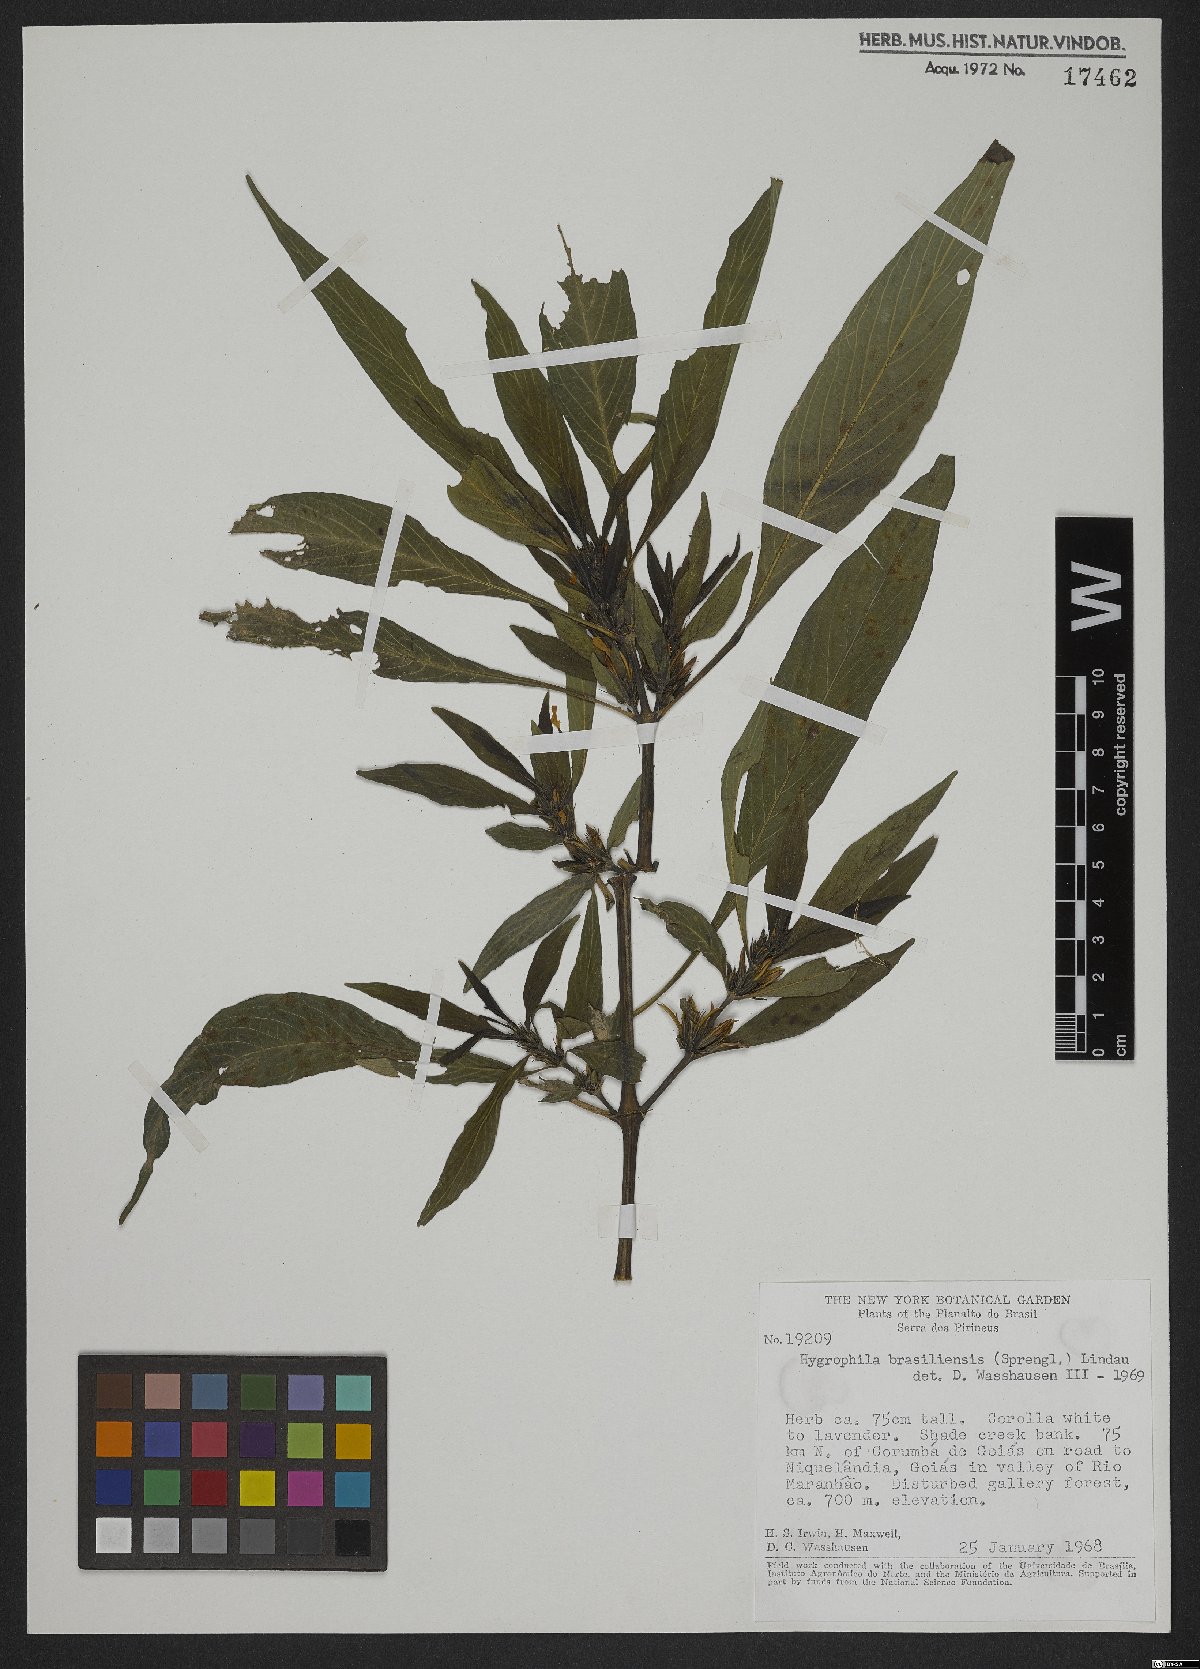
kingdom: Plantae
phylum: Tracheophyta
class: Magnoliopsida
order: Lamiales
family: Acanthaceae
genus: Hygrophila
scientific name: Hygrophila costata
